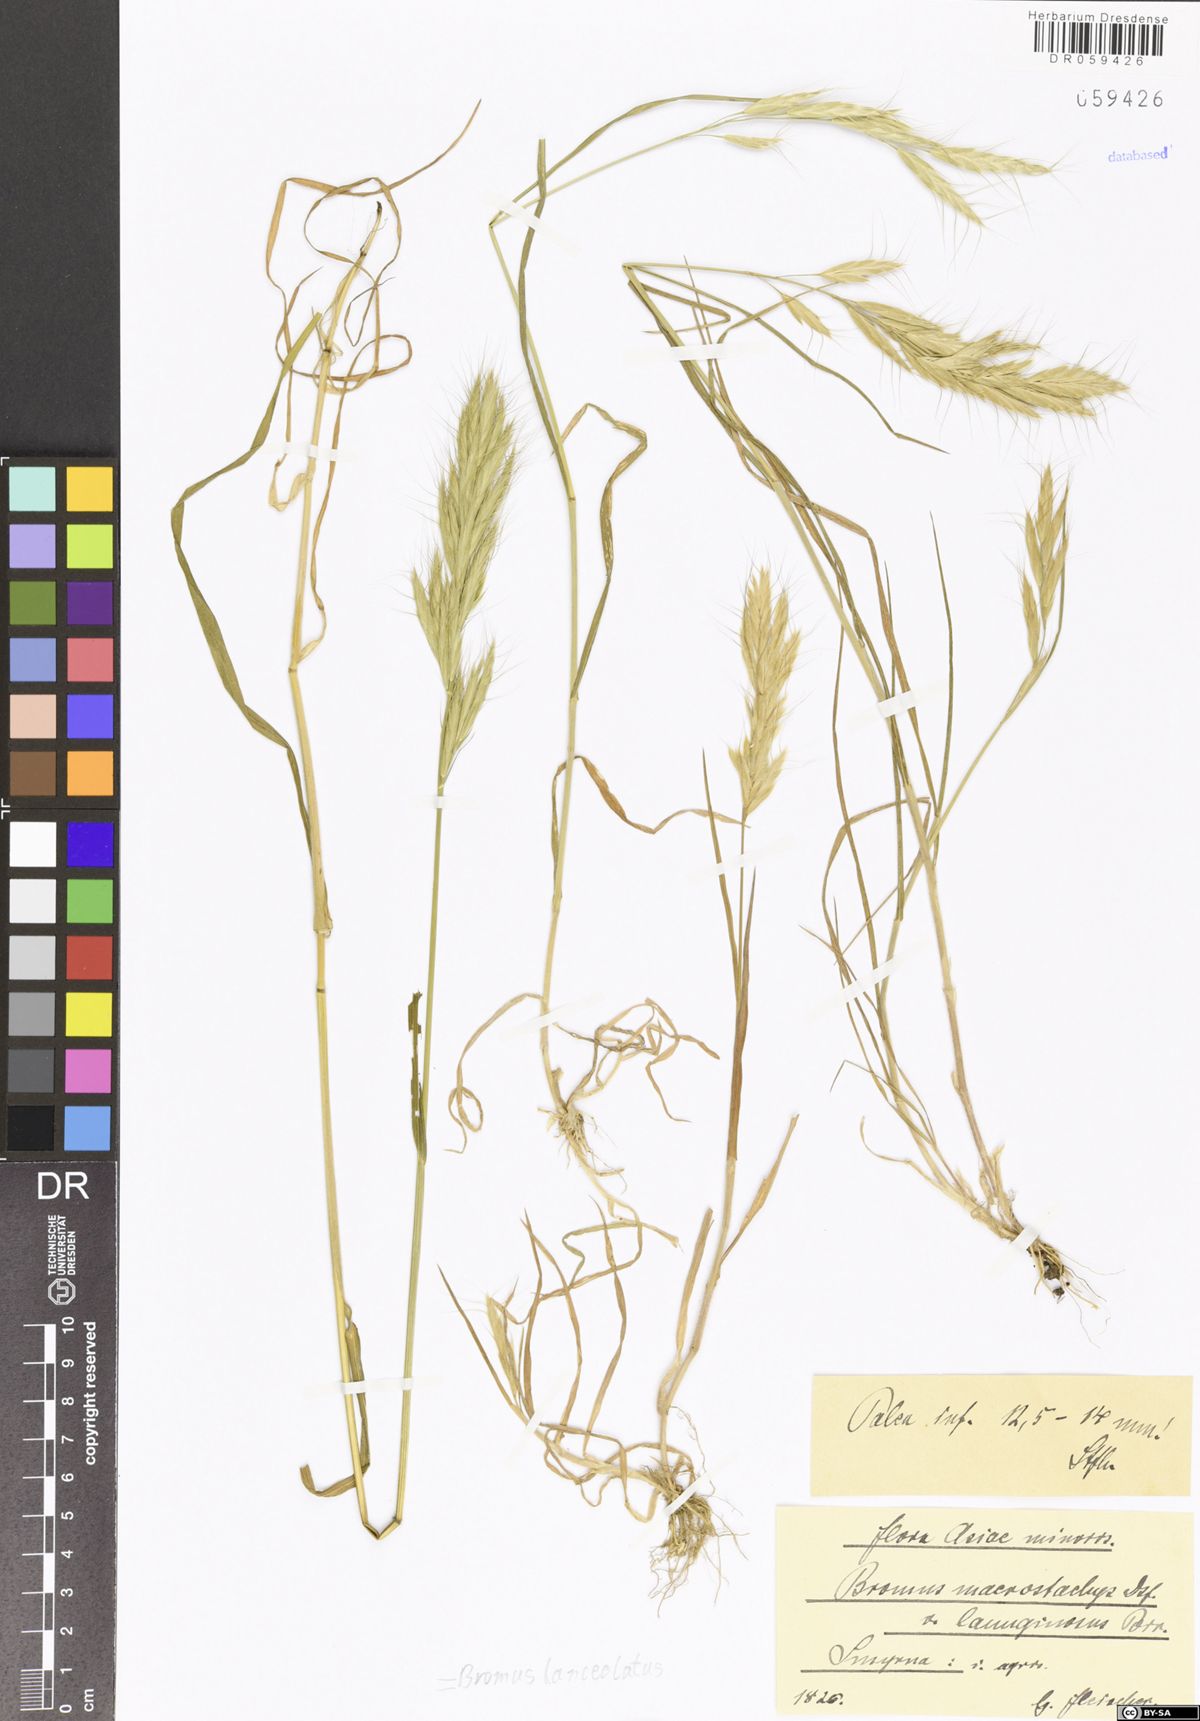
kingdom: Plantae
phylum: Tracheophyta
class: Liliopsida
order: Poales
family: Poaceae
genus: Bromus
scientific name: Bromus lanceolatus
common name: Mediterranean brome
